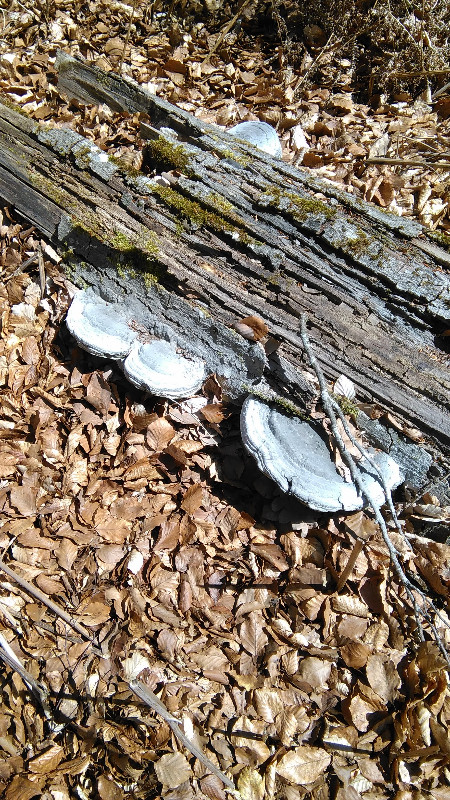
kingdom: Fungi
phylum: Basidiomycota
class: Agaricomycetes
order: Polyporales
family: Polyporaceae
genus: Fomes
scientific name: Fomes fomentarius
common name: tøndersvamp
